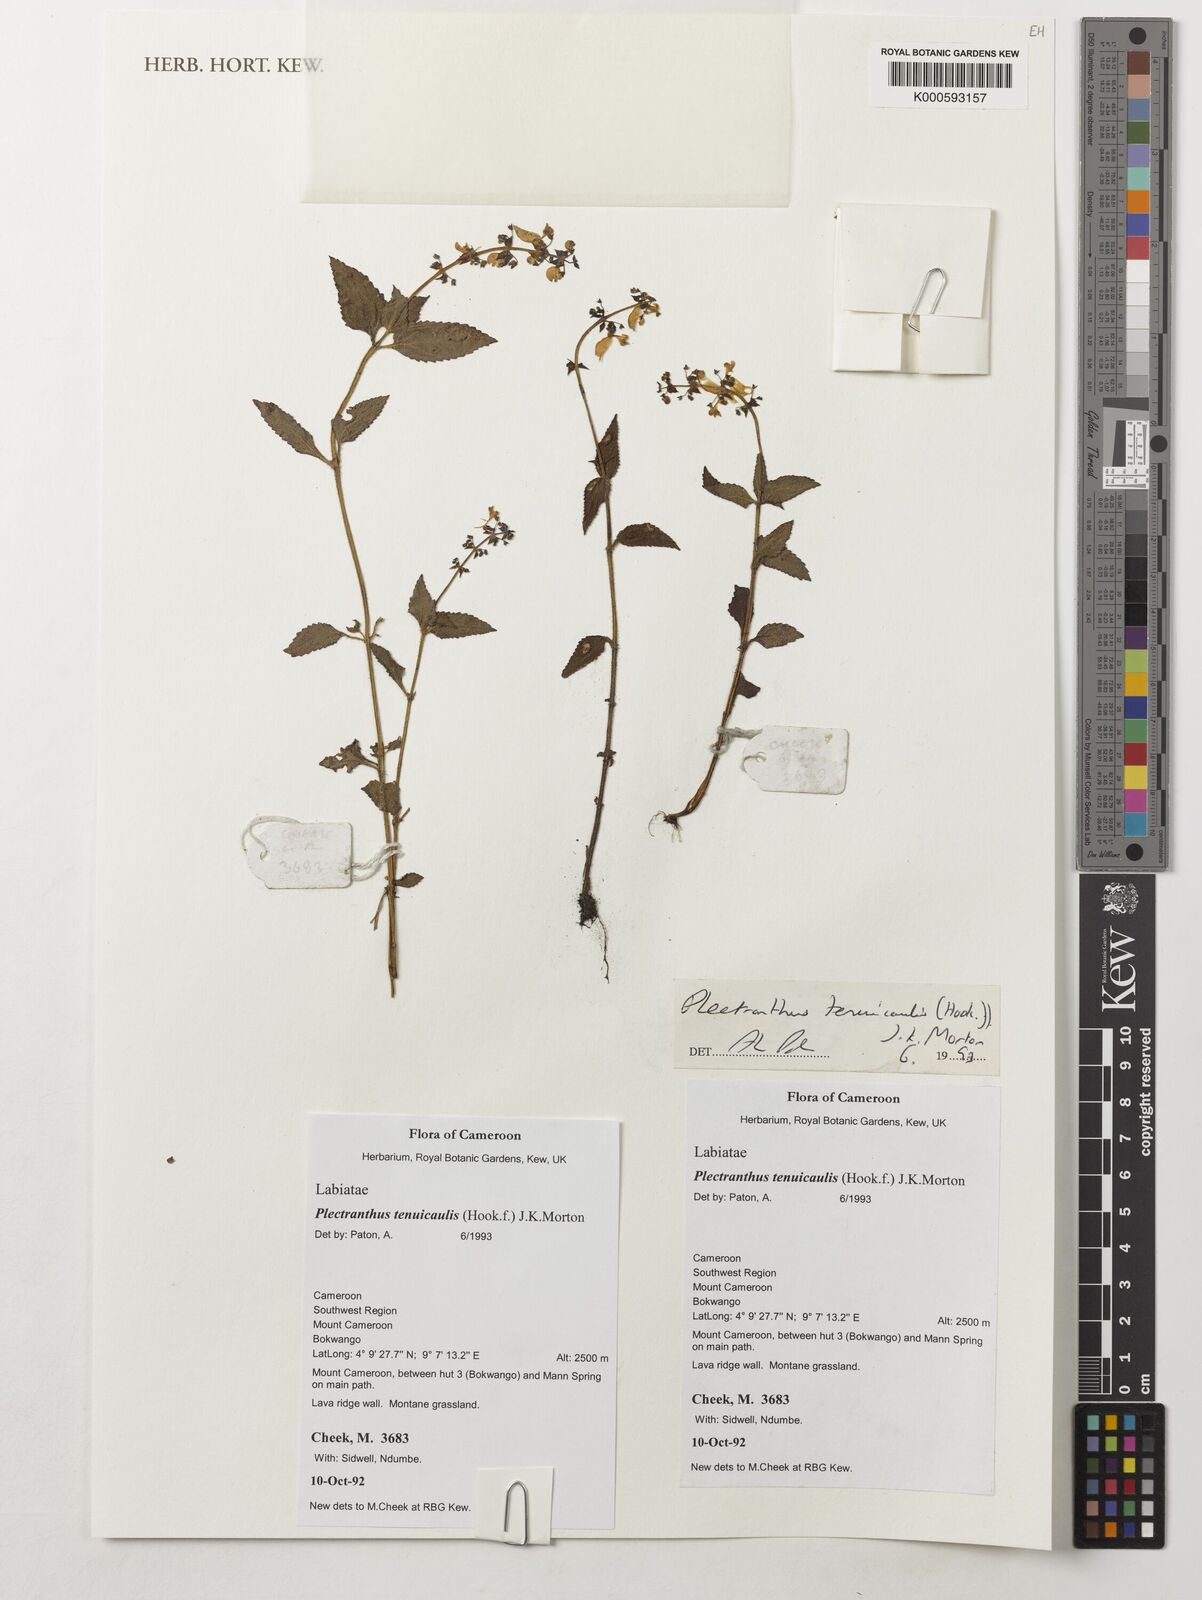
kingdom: Plantae
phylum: Tracheophyta
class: Magnoliopsida
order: Lamiales
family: Lamiaceae
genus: Coleus
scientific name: Coleus tenuicaulis
